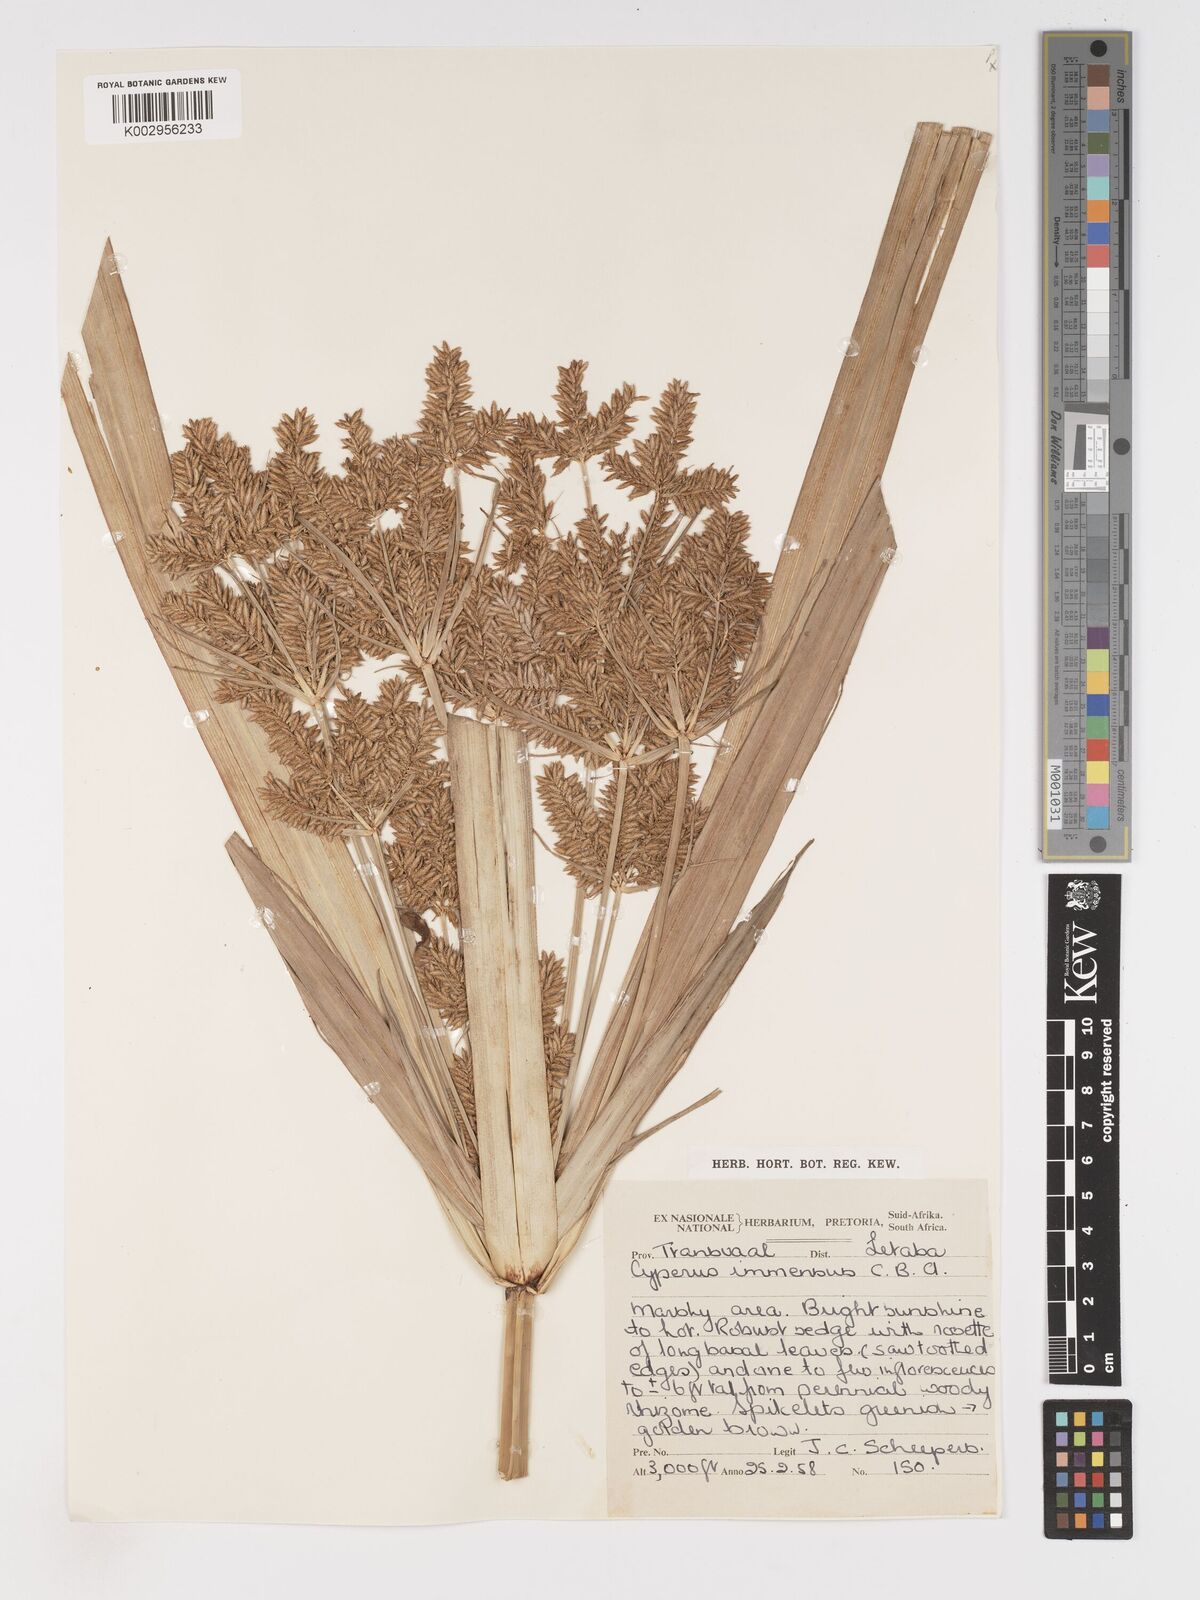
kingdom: Plantae
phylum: Tracheophyta
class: Liliopsida
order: Poales
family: Cyperaceae
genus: Cyperus
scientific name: Cyperus dives
